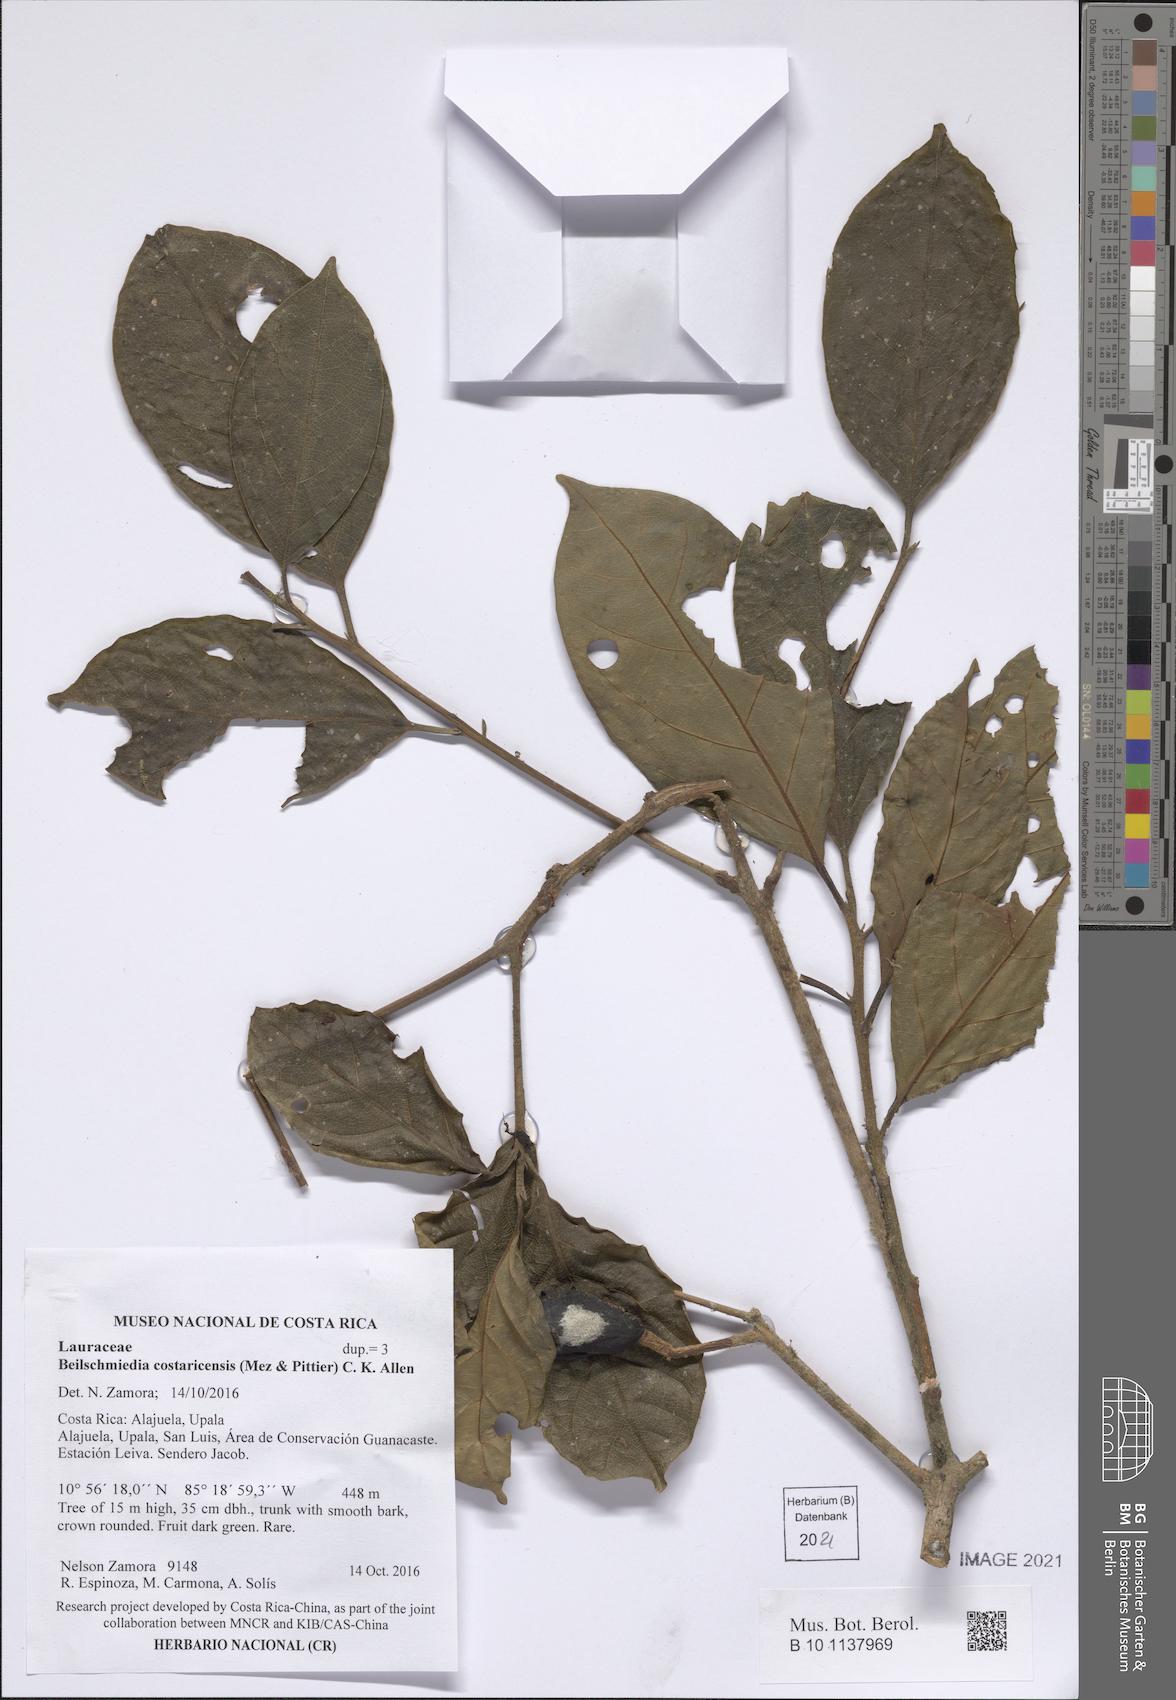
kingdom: Plantae
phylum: Tracheophyta
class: Magnoliopsida
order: Laurales
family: Lauraceae
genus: Beilschmiedia
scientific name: Beilschmiedia costaricensis
